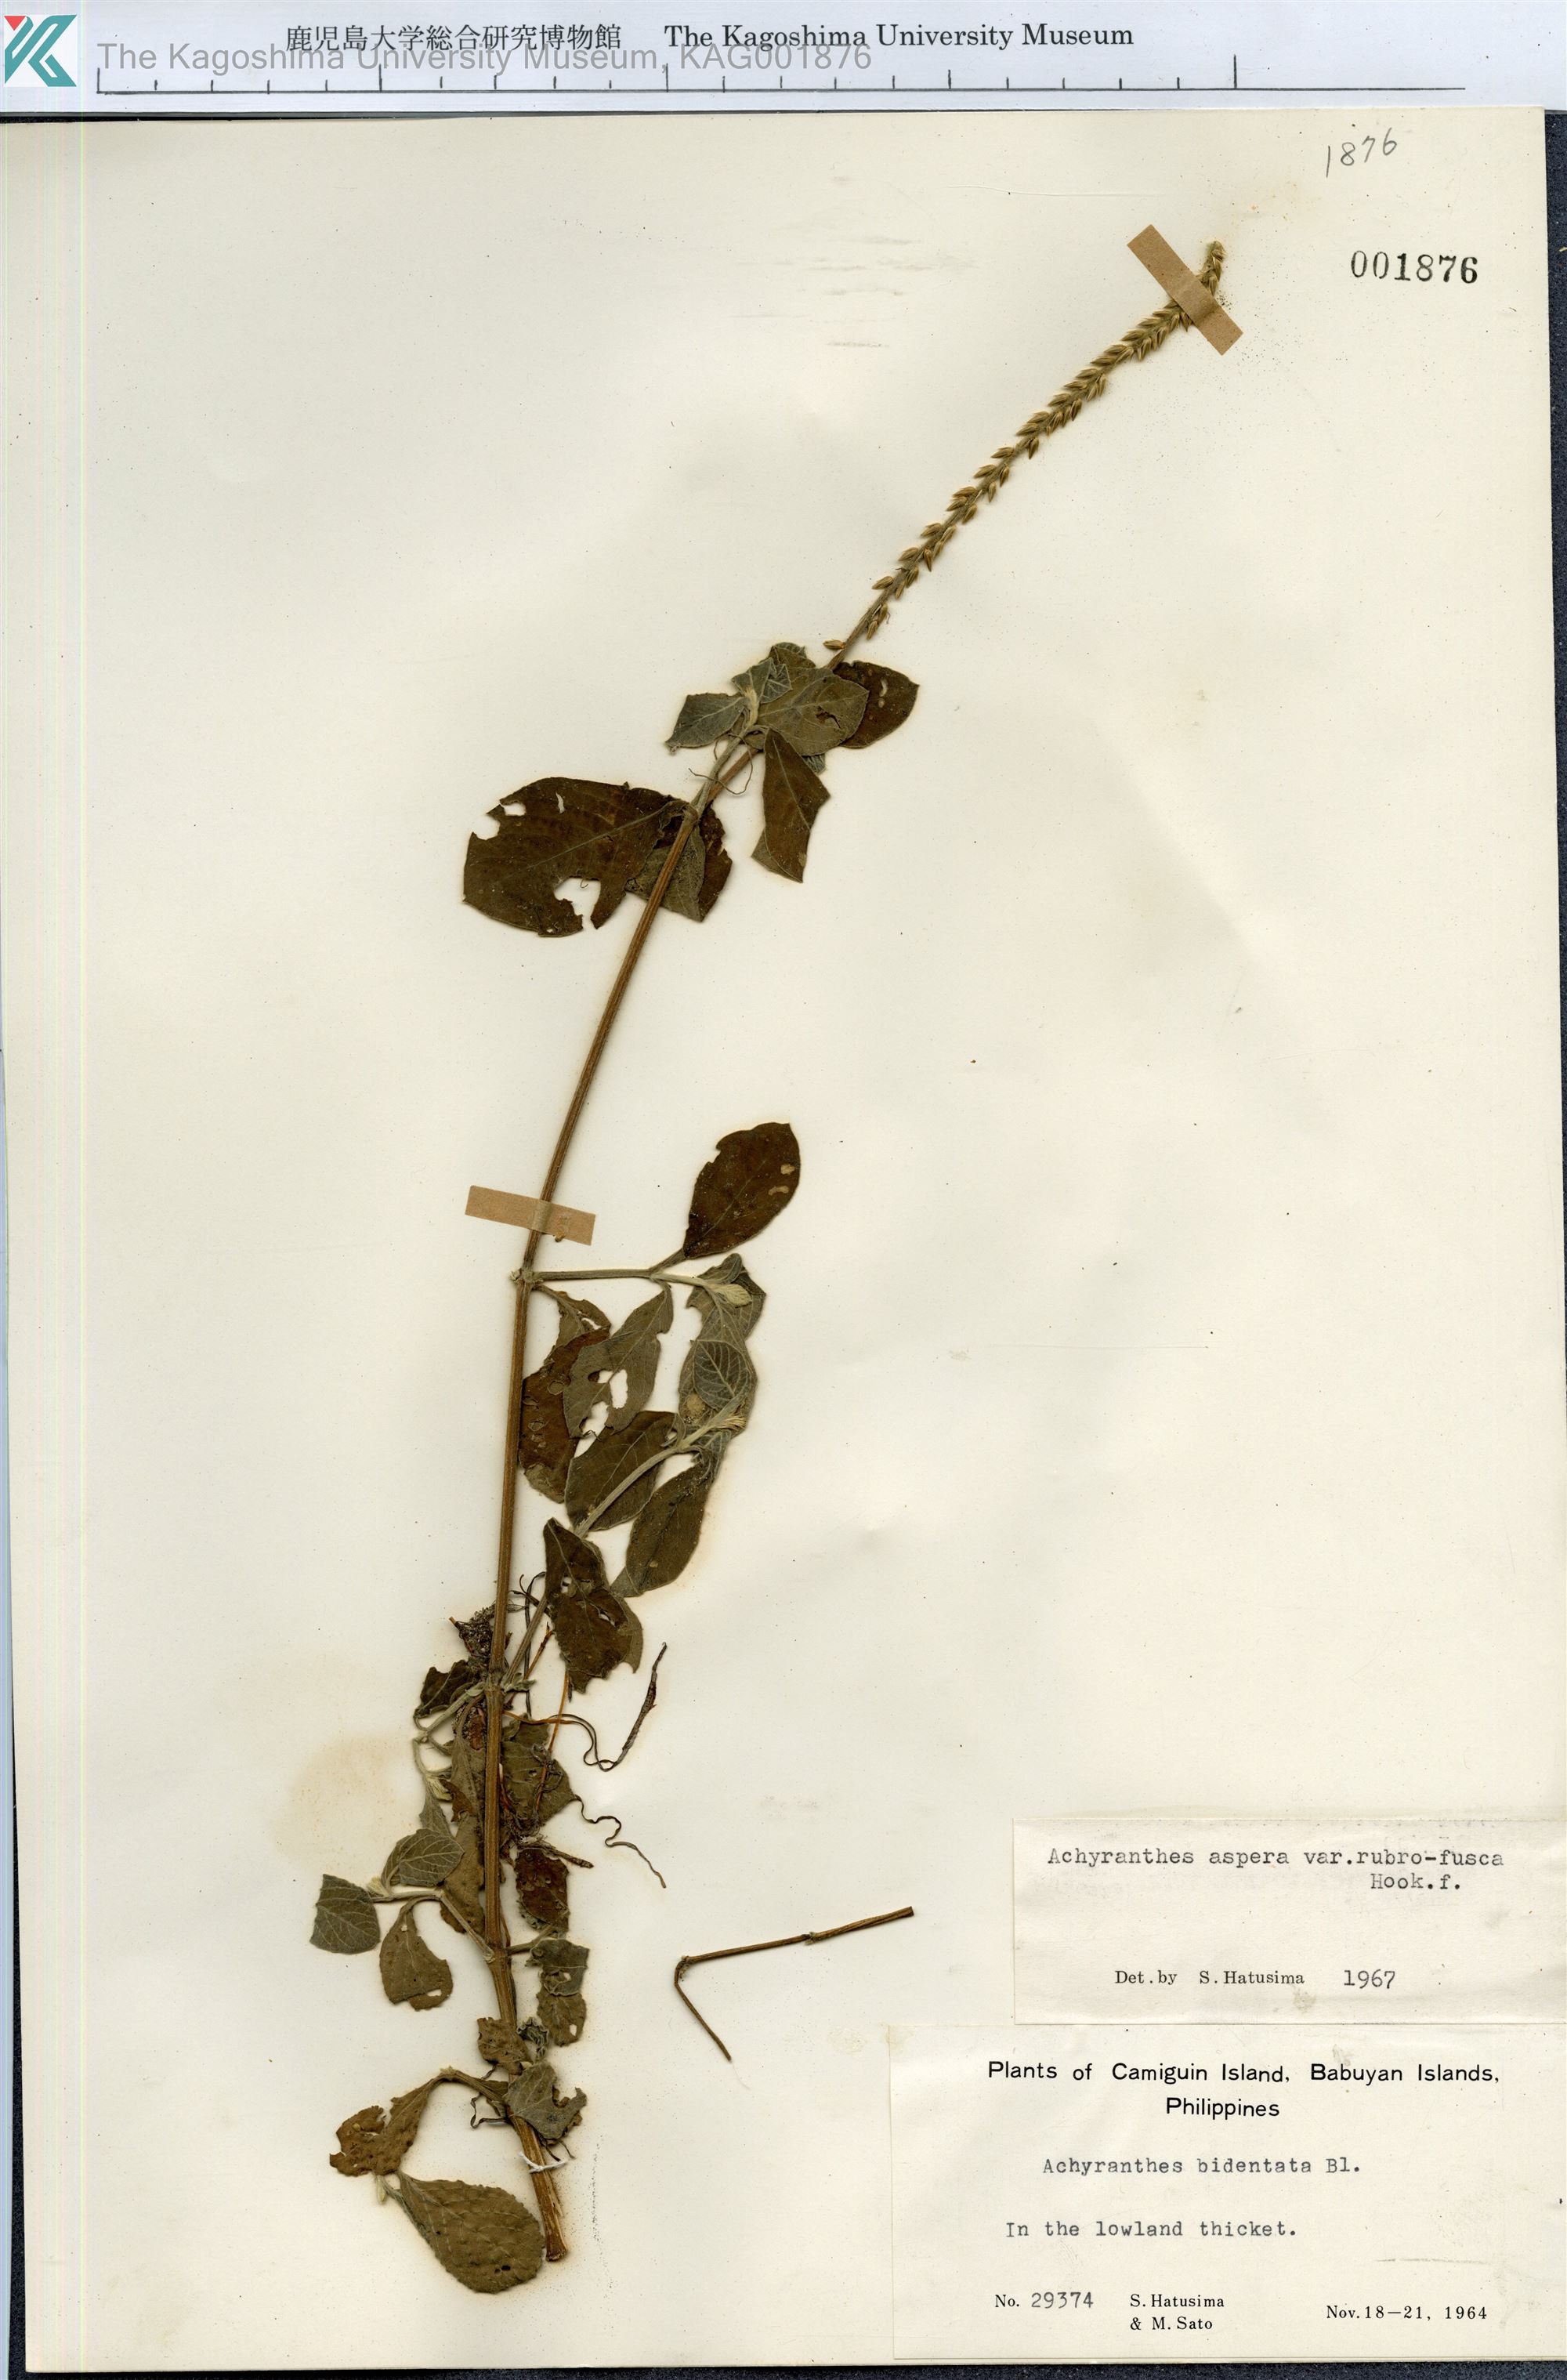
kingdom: Plantae
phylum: Tracheophyta
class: Magnoliopsida
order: Caryophyllales
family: Amaranthaceae
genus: Achyranthes
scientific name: Achyranthes aspera
